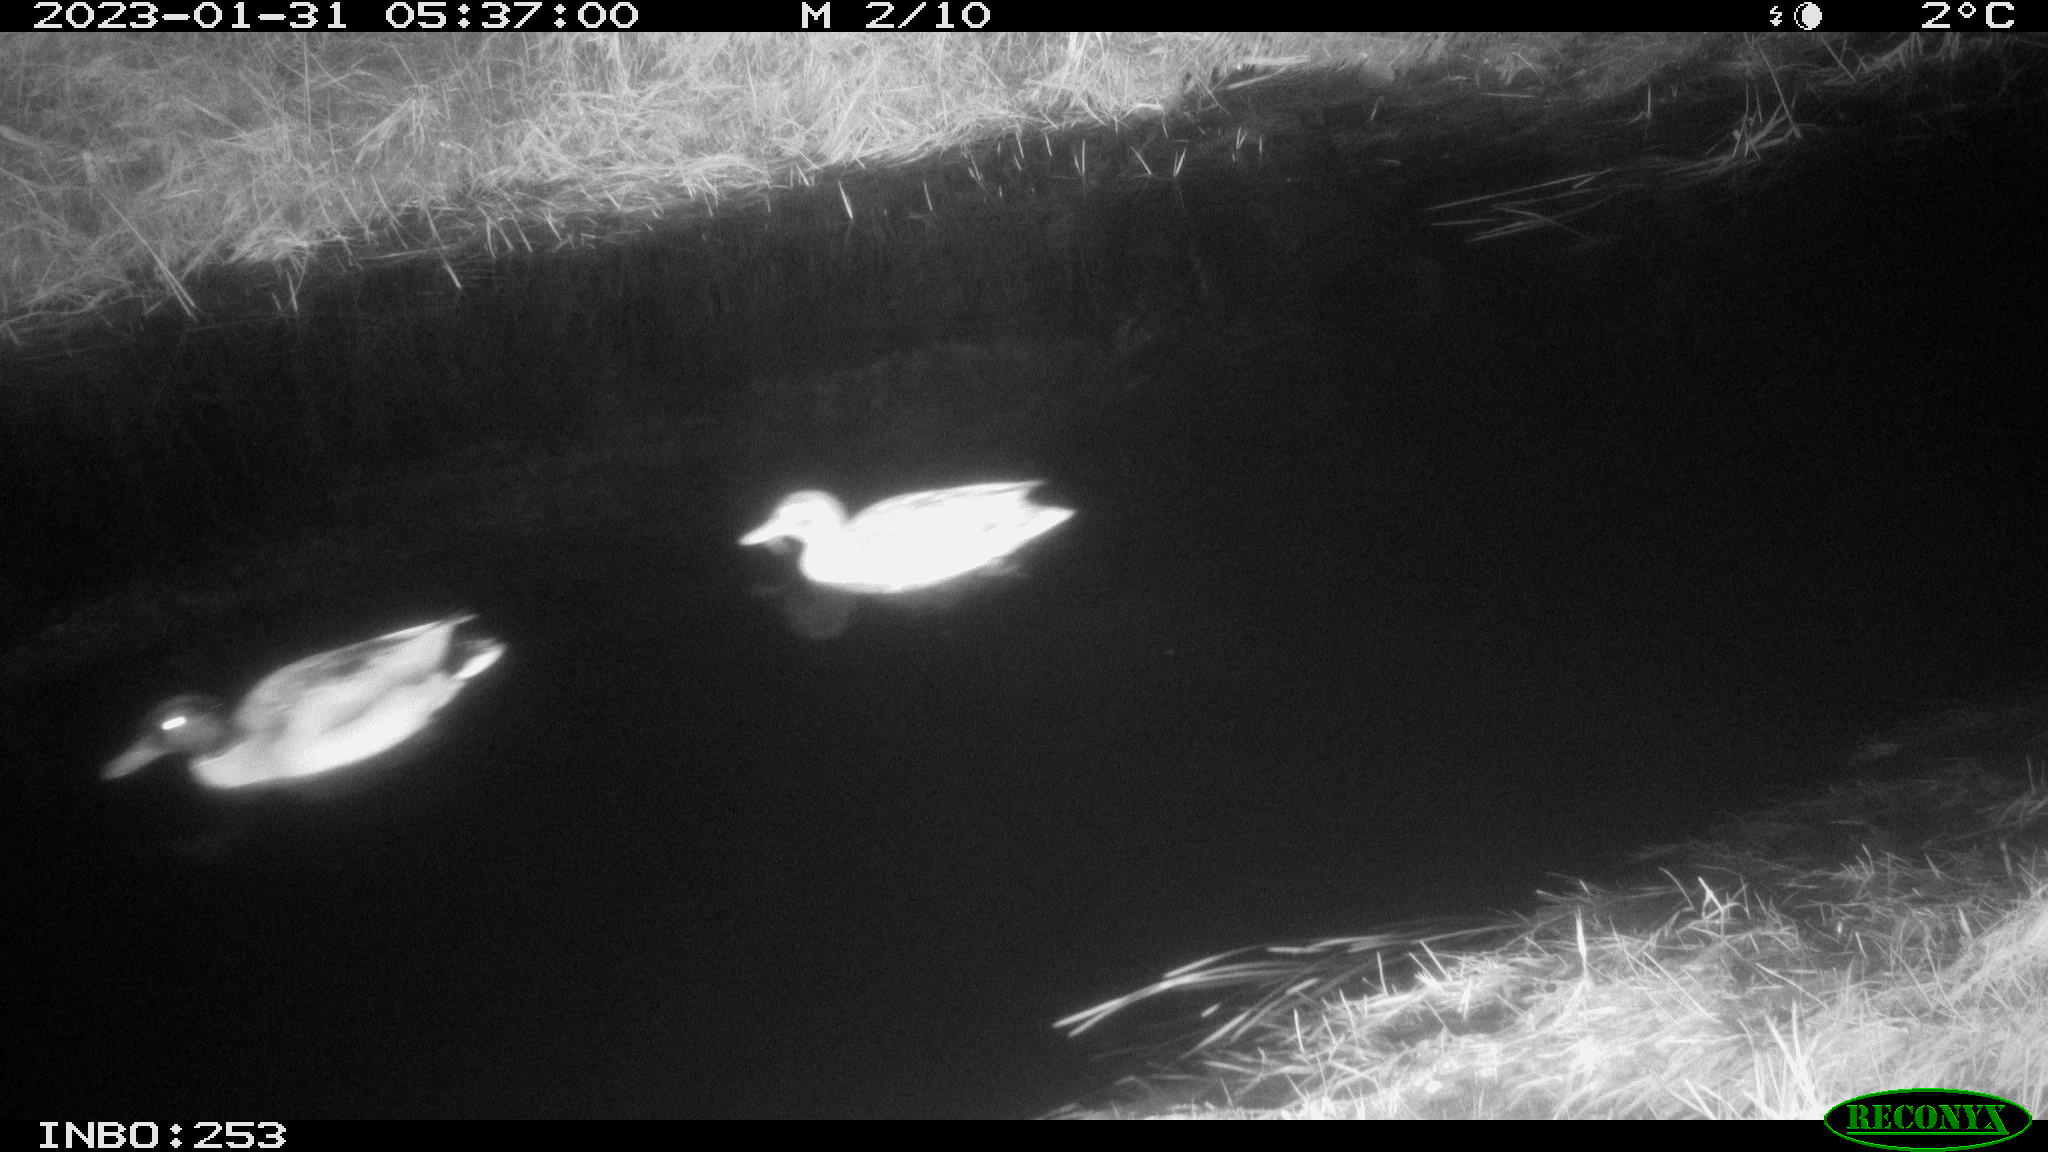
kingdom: Animalia
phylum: Chordata
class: Aves
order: Anseriformes
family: Anatidae
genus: Anas
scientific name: Anas
